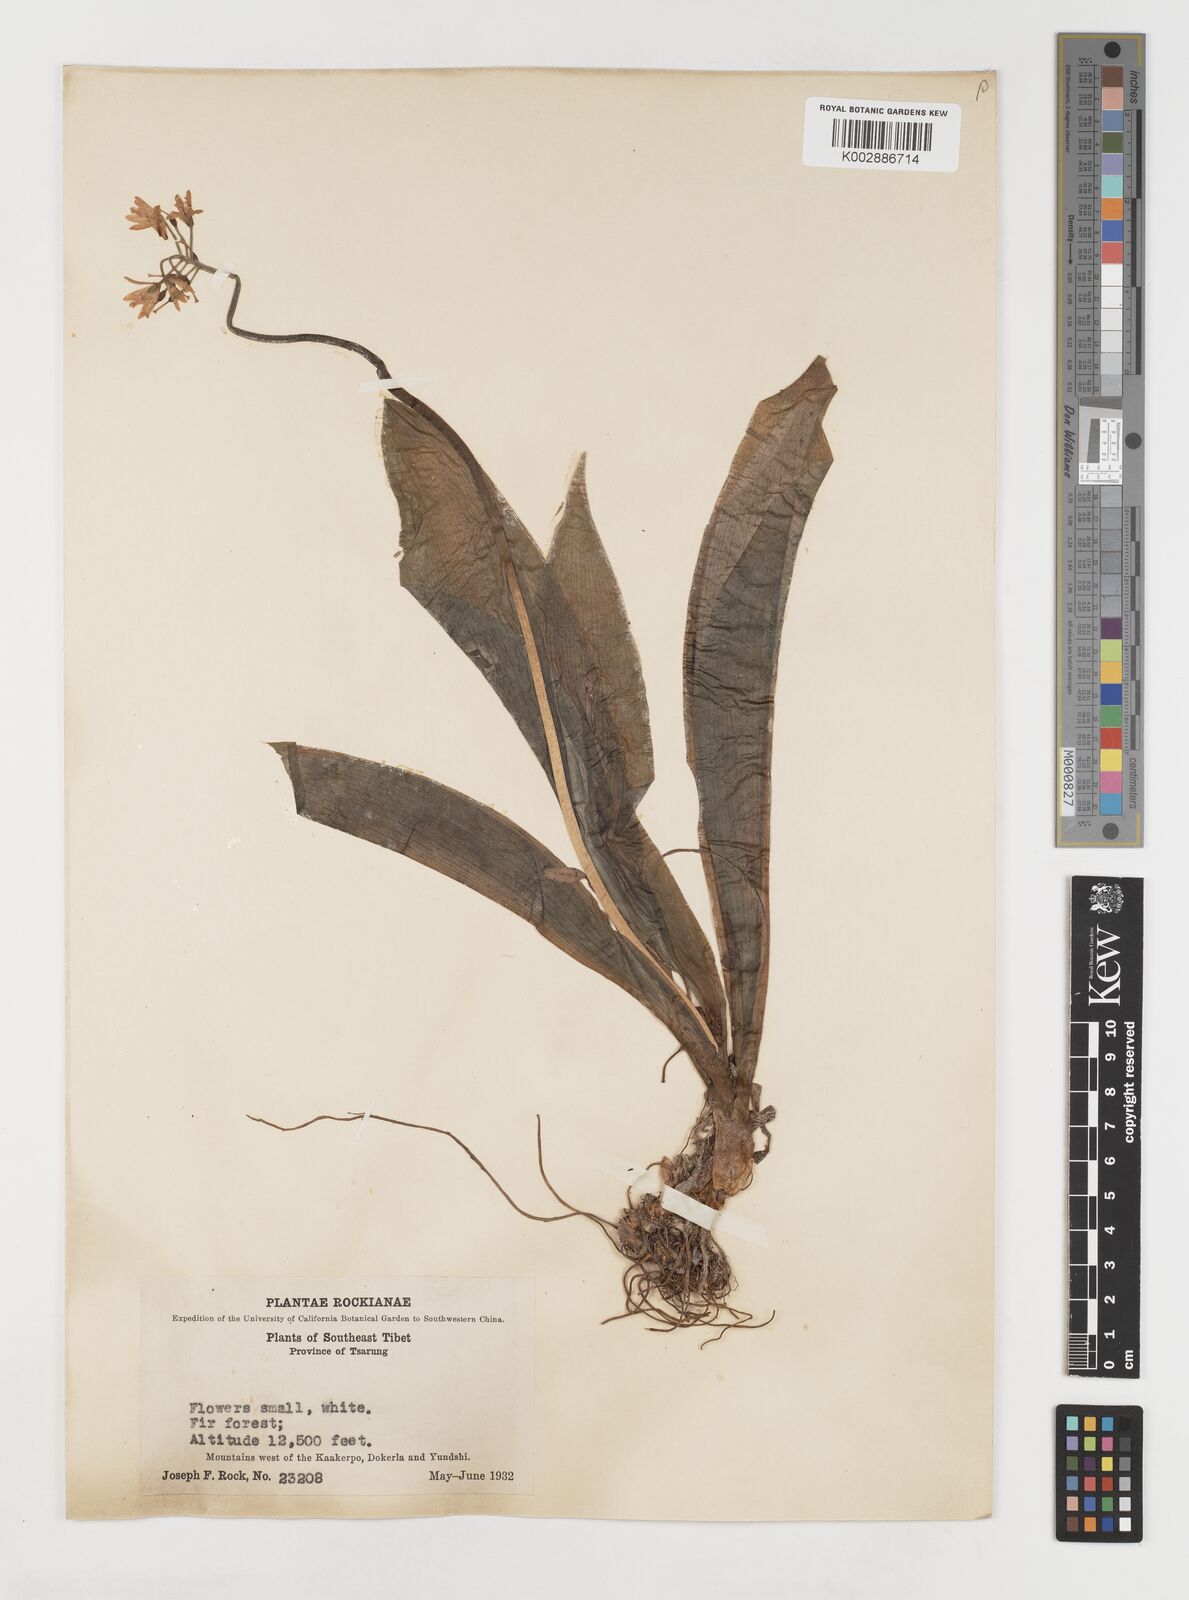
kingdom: Plantae
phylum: Tracheophyta
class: Liliopsida
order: Liliales
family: Liliaceae
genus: Clintonia
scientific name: Clintonia udensis
